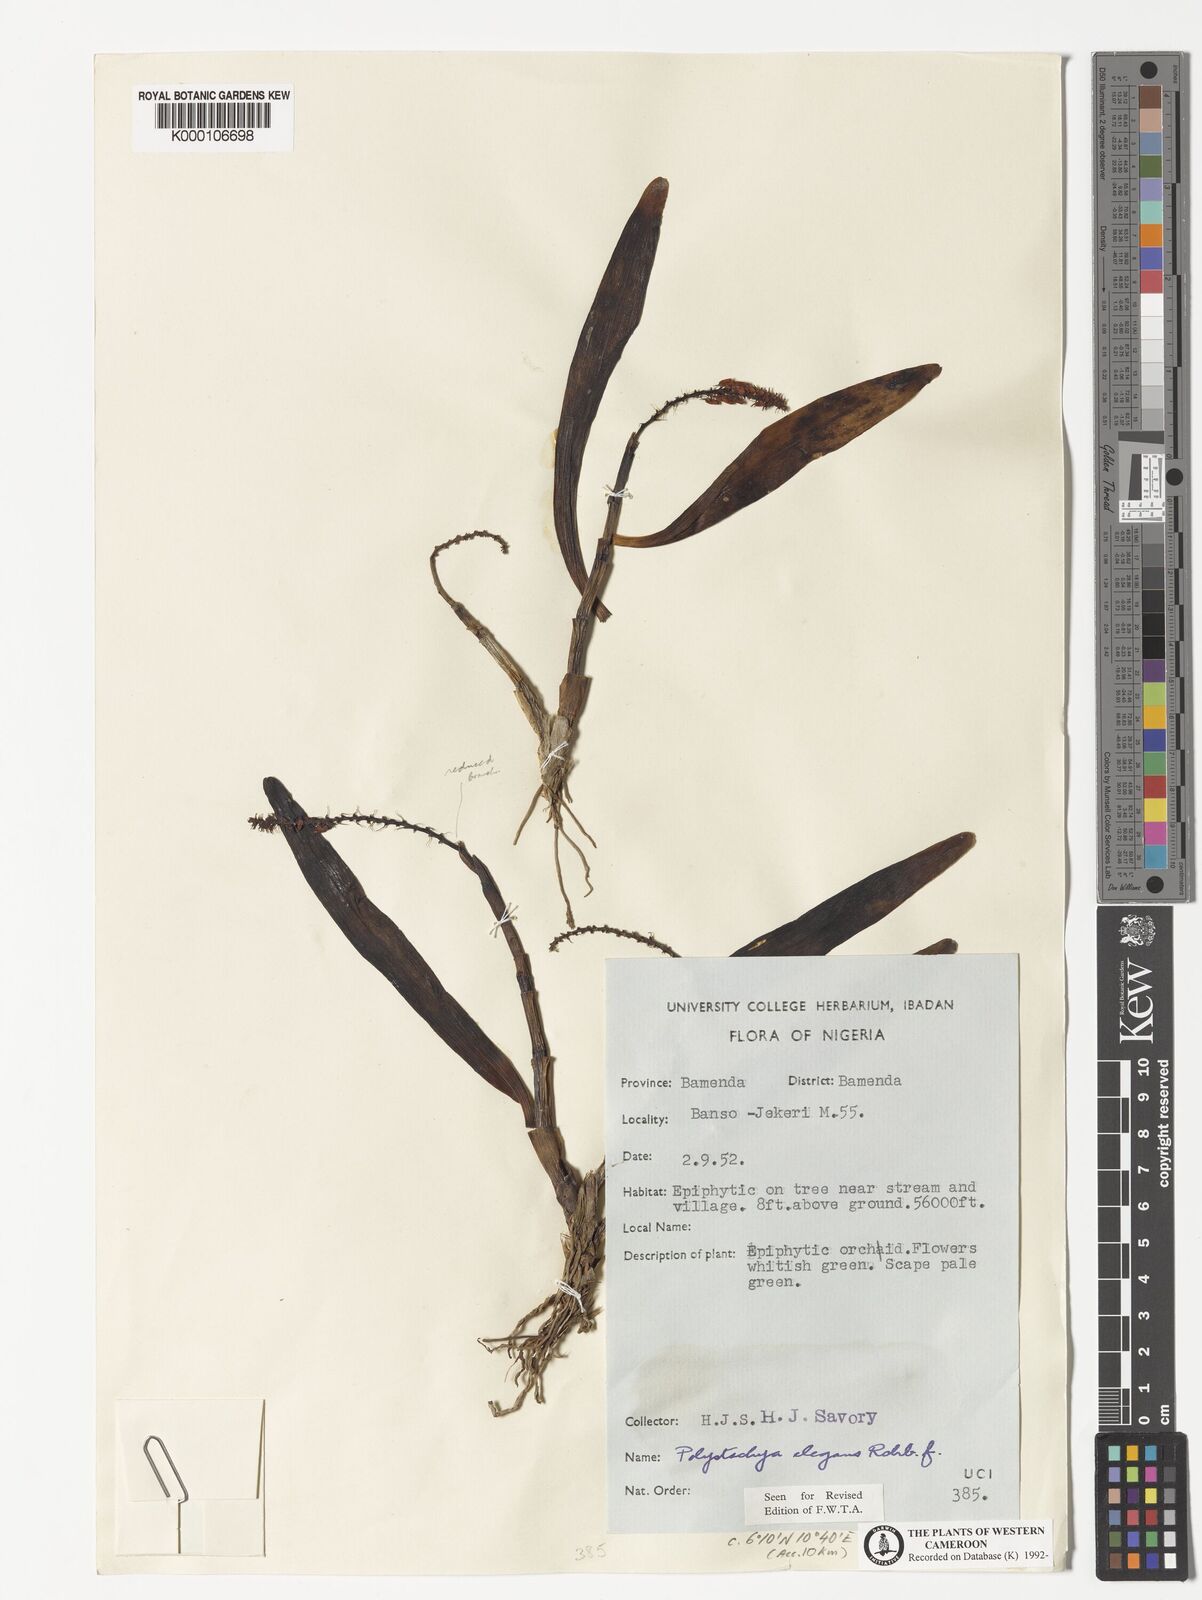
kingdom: Plantae
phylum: Tracheophyta
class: Liliopsida
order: Asparagales
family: Orchidaceae
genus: Polystachya
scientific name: Polystachya elegans
